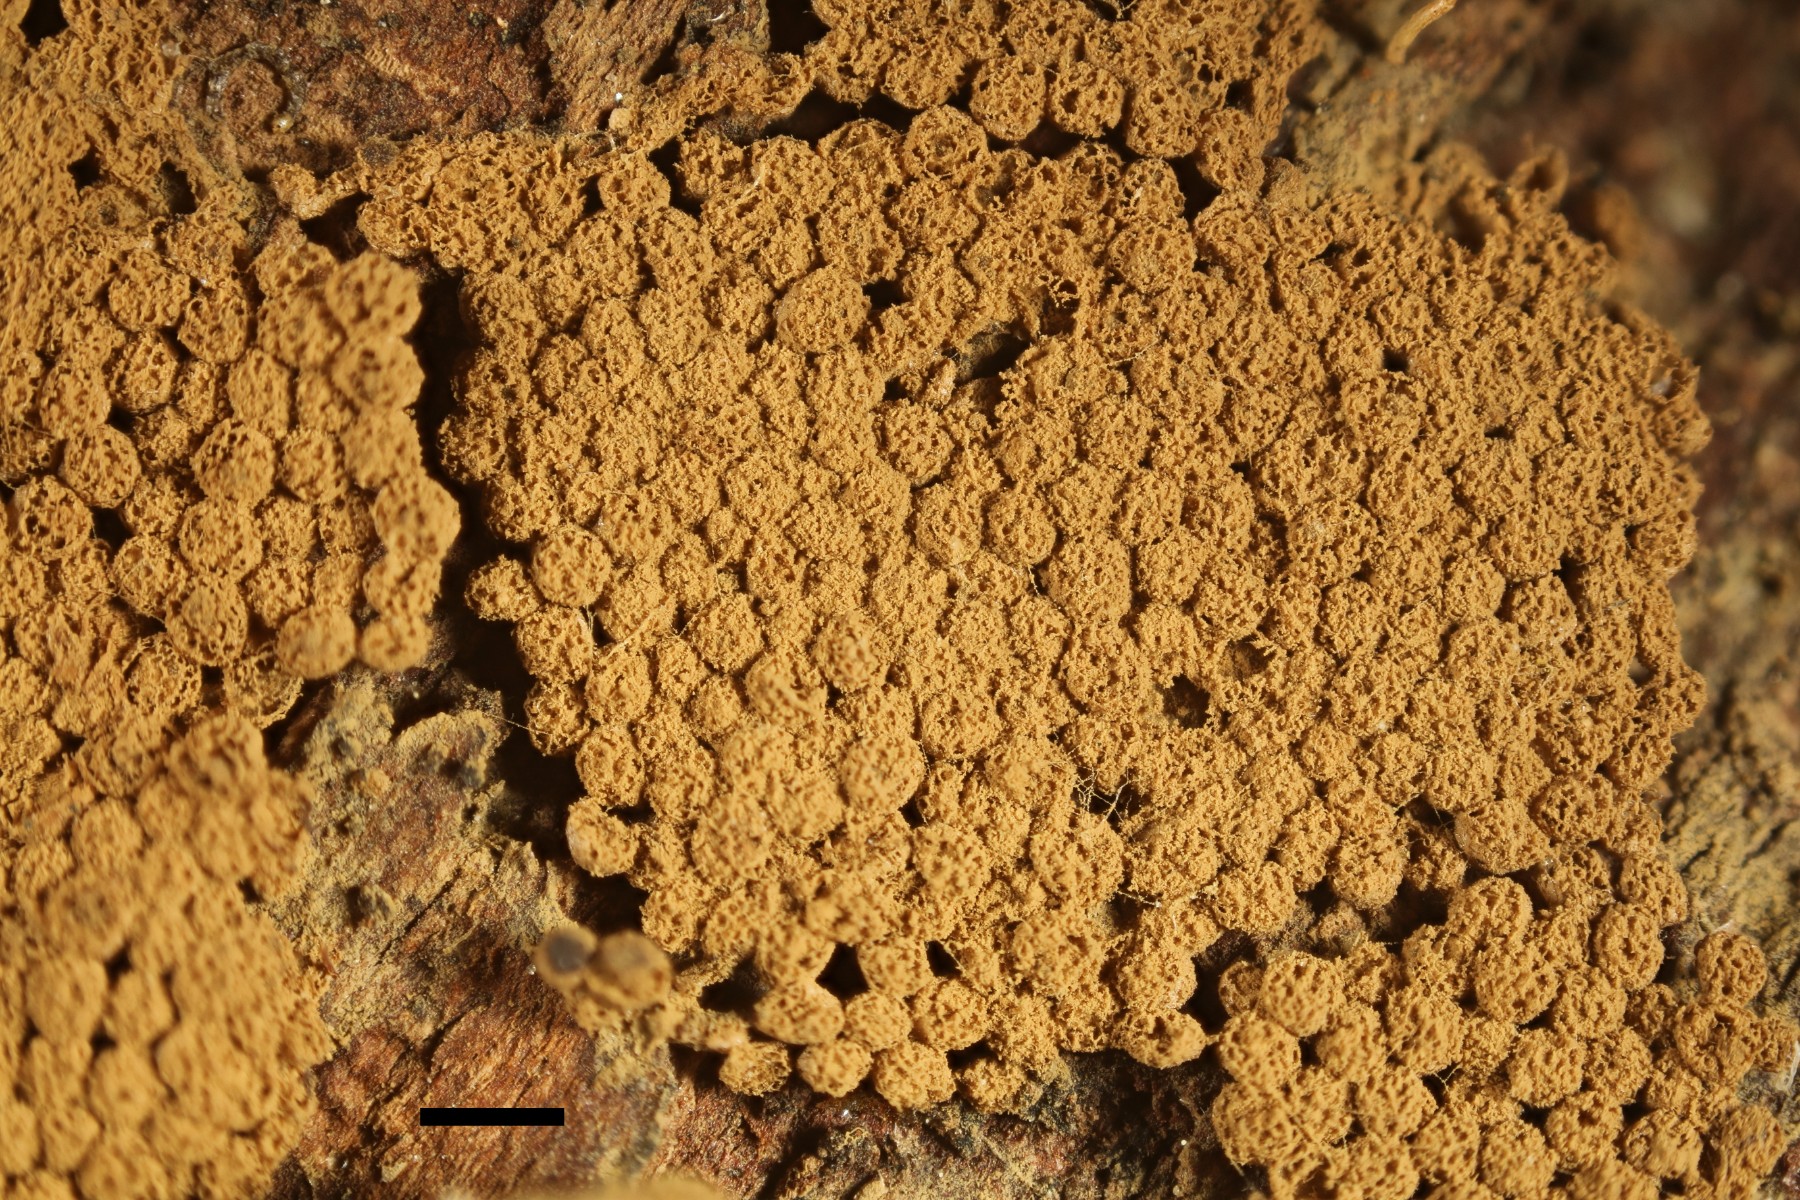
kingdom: Protozoa
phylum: Mycetozoa
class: Myxomycetes
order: Cribrariales
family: Cribrariaceae
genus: Cribraria
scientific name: Cribraria argillacea
